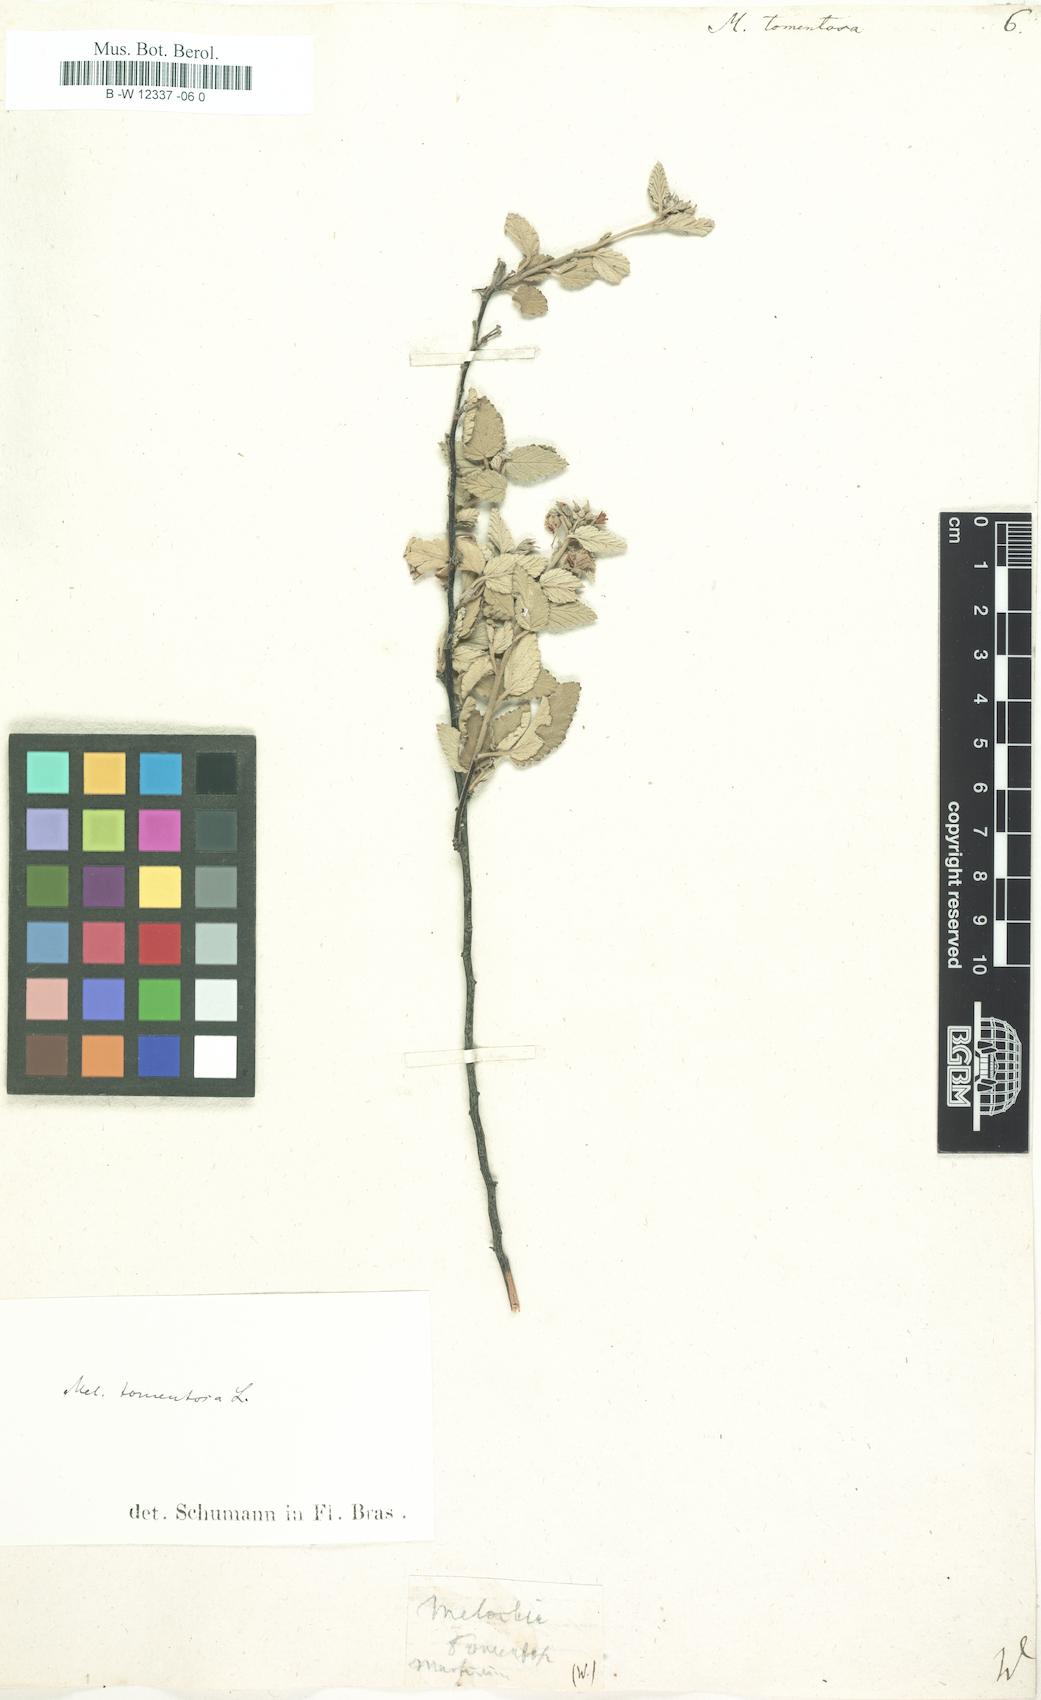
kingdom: Plantae
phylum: Tracheophyta
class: Magnoliopsida
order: Malvales
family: Malvaceae
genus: Melochia
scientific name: Melochia tomentosa
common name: Black torch
